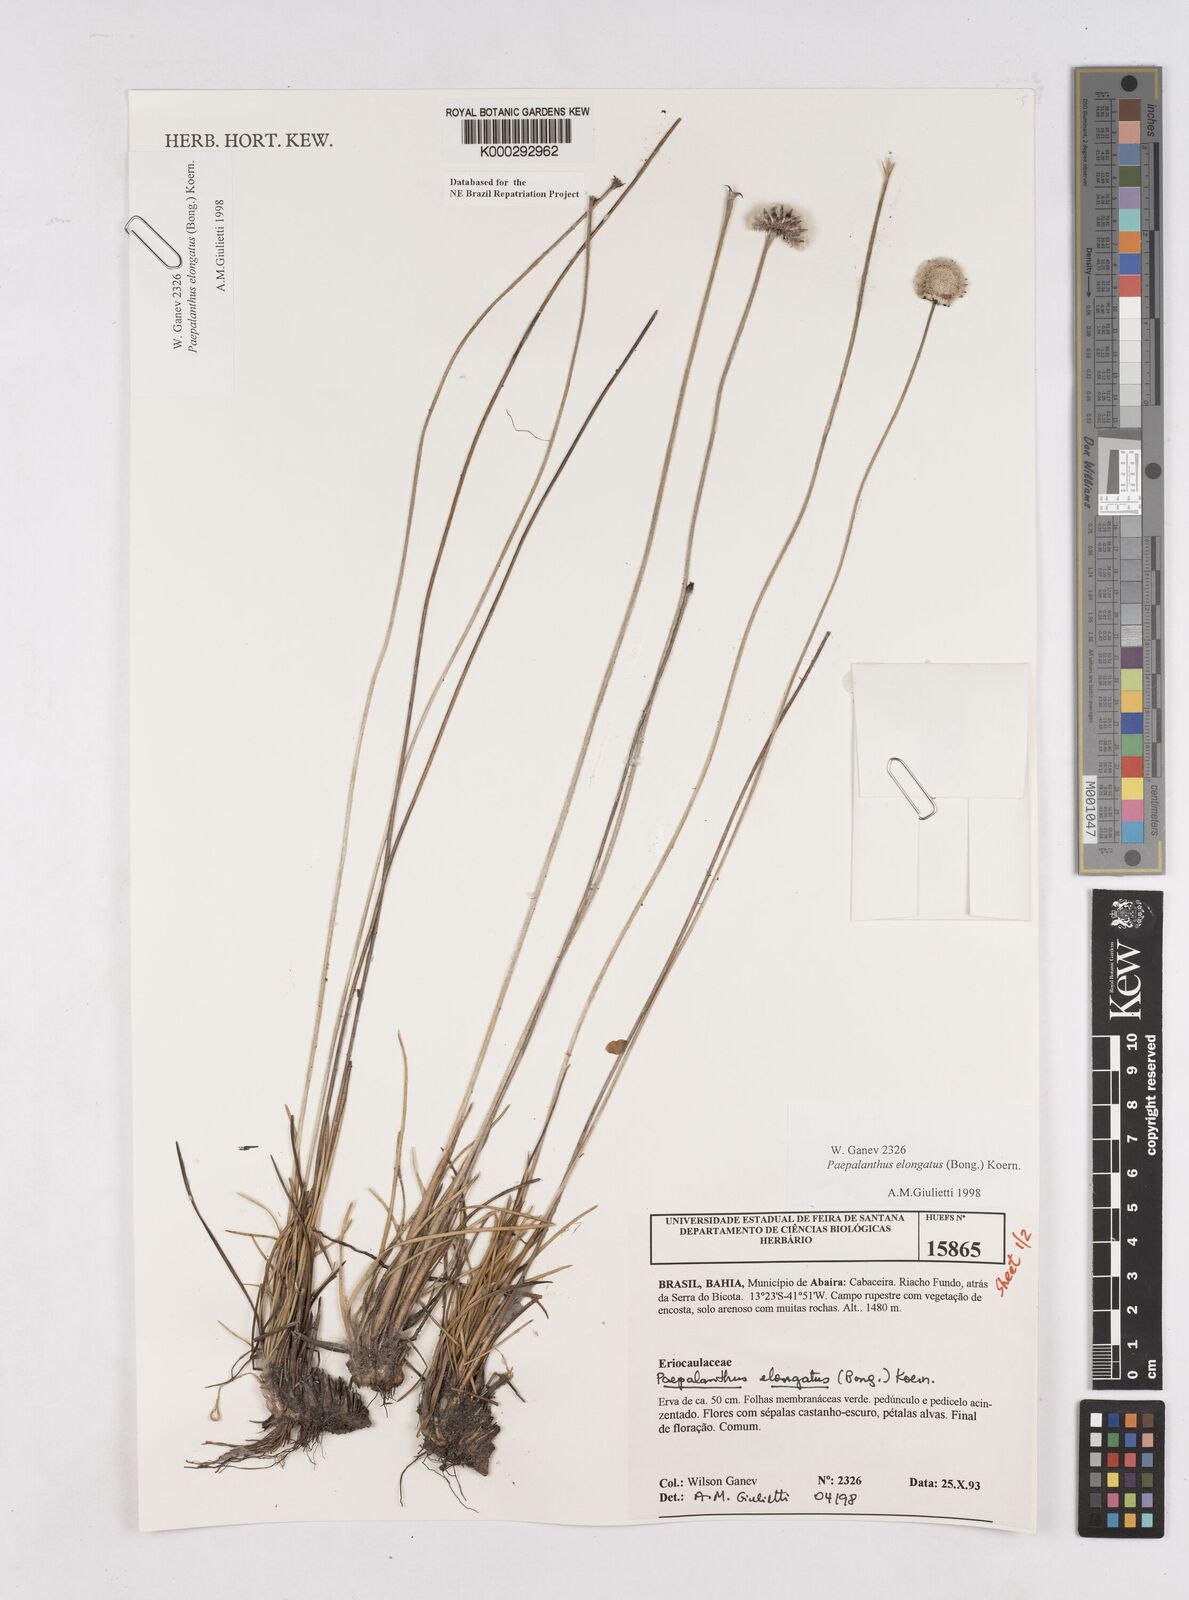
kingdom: Plantae
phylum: Tracheophyta
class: Liliopsida
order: Poales
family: Eriocaulaceae
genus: Paepalanthus
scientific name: Paepalanthus
